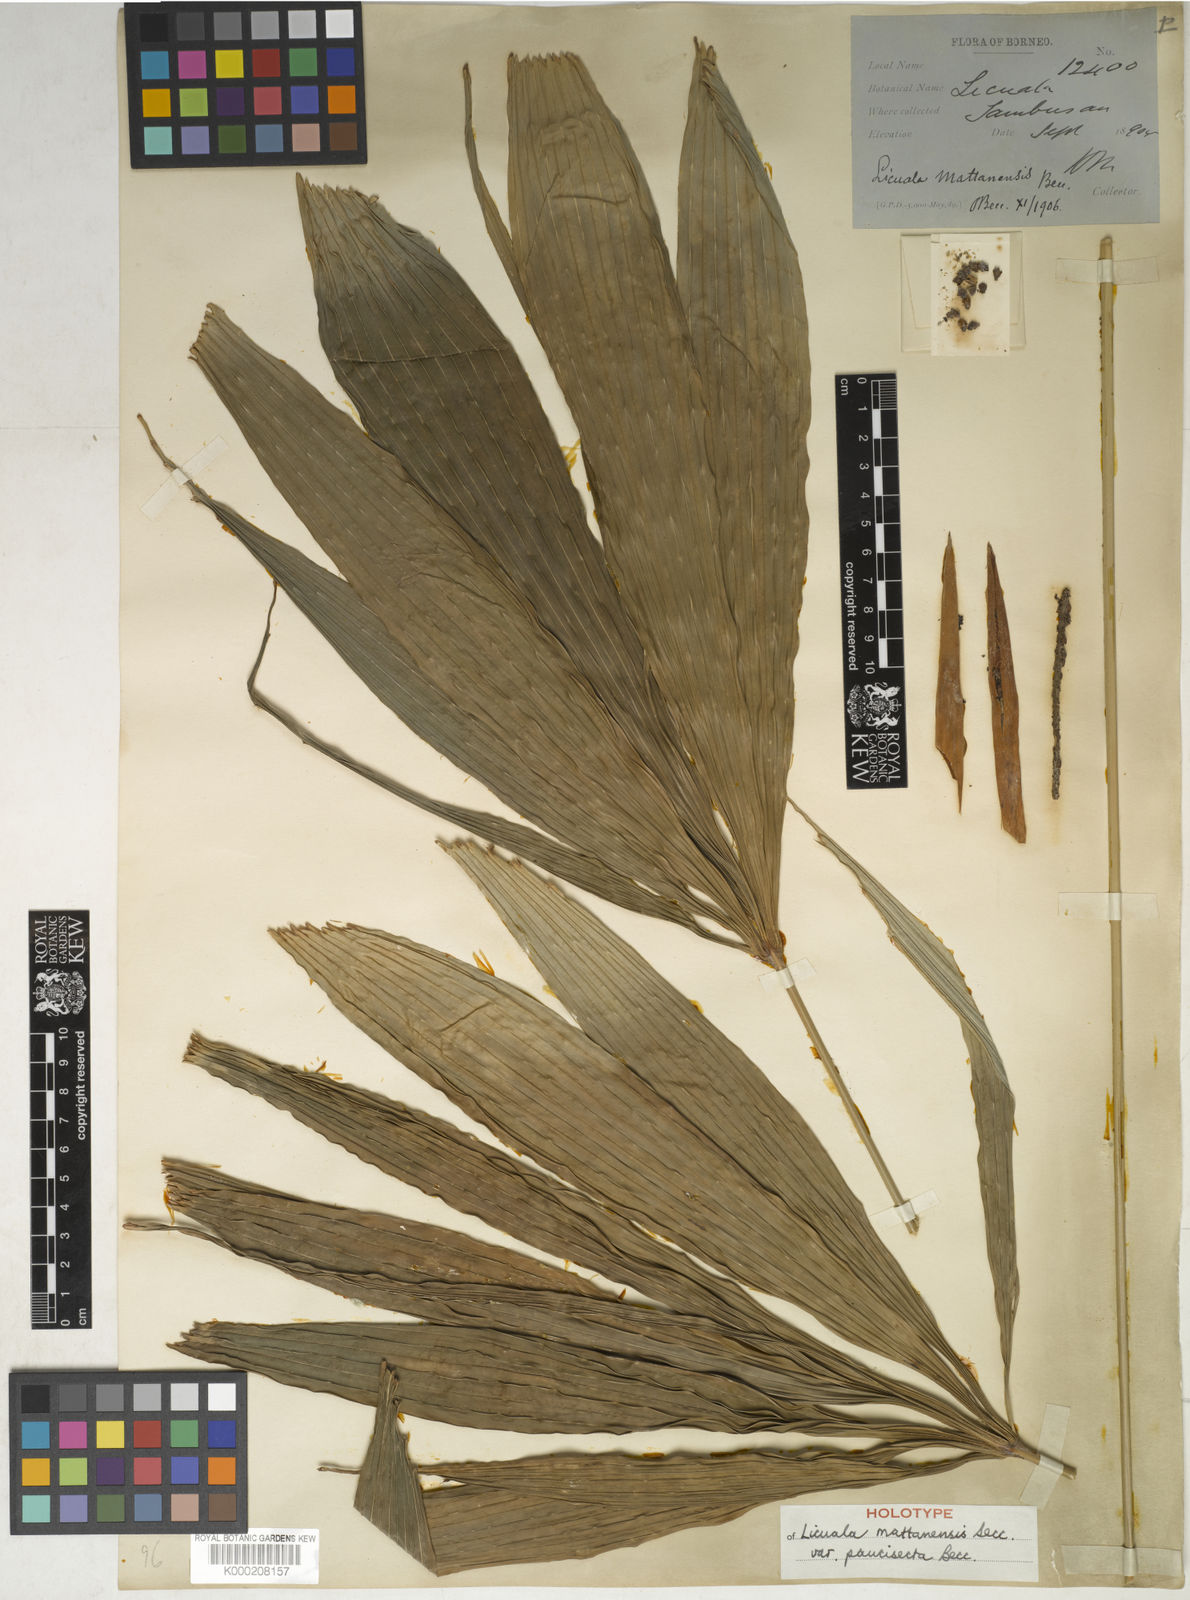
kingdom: Plantae
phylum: Tracheophyta
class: Liliopsida
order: Arecales
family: Arecaceae
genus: Licuala
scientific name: Licuala mattanensis
